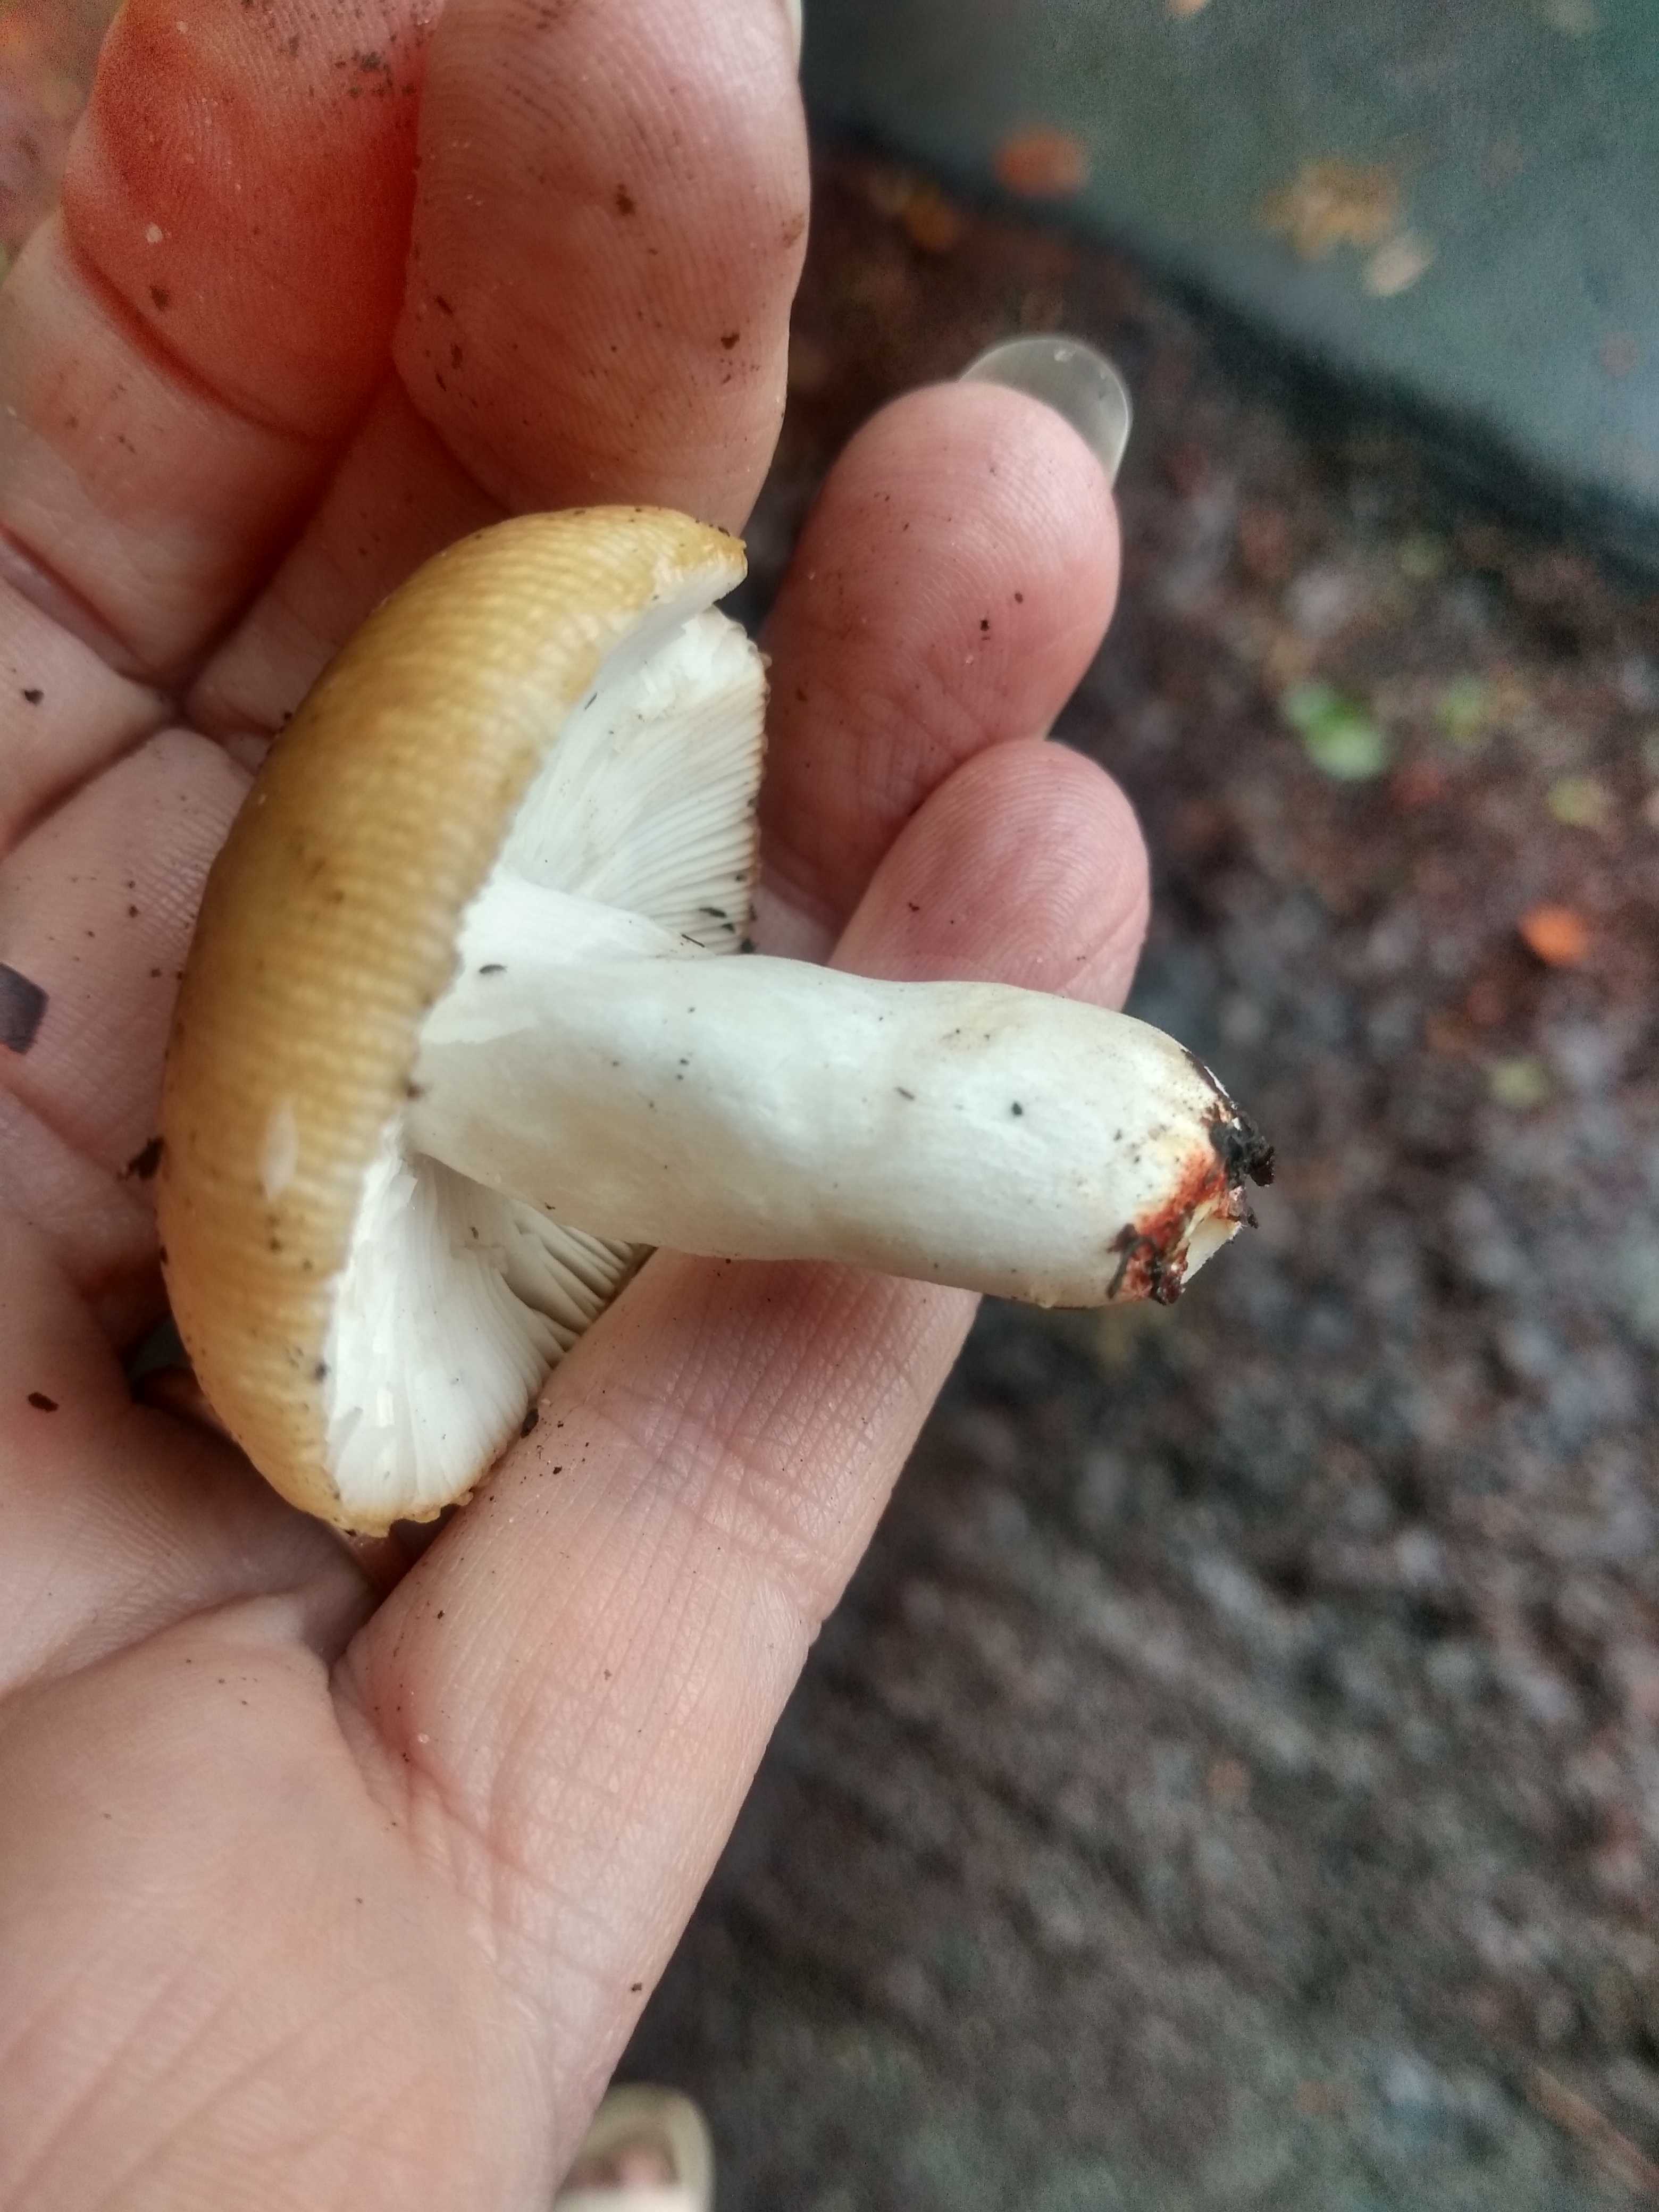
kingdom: Fungi
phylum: Basidiomycota
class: Agaricomycetes
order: Russulales
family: Russulaceae
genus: Russula
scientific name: Russula
